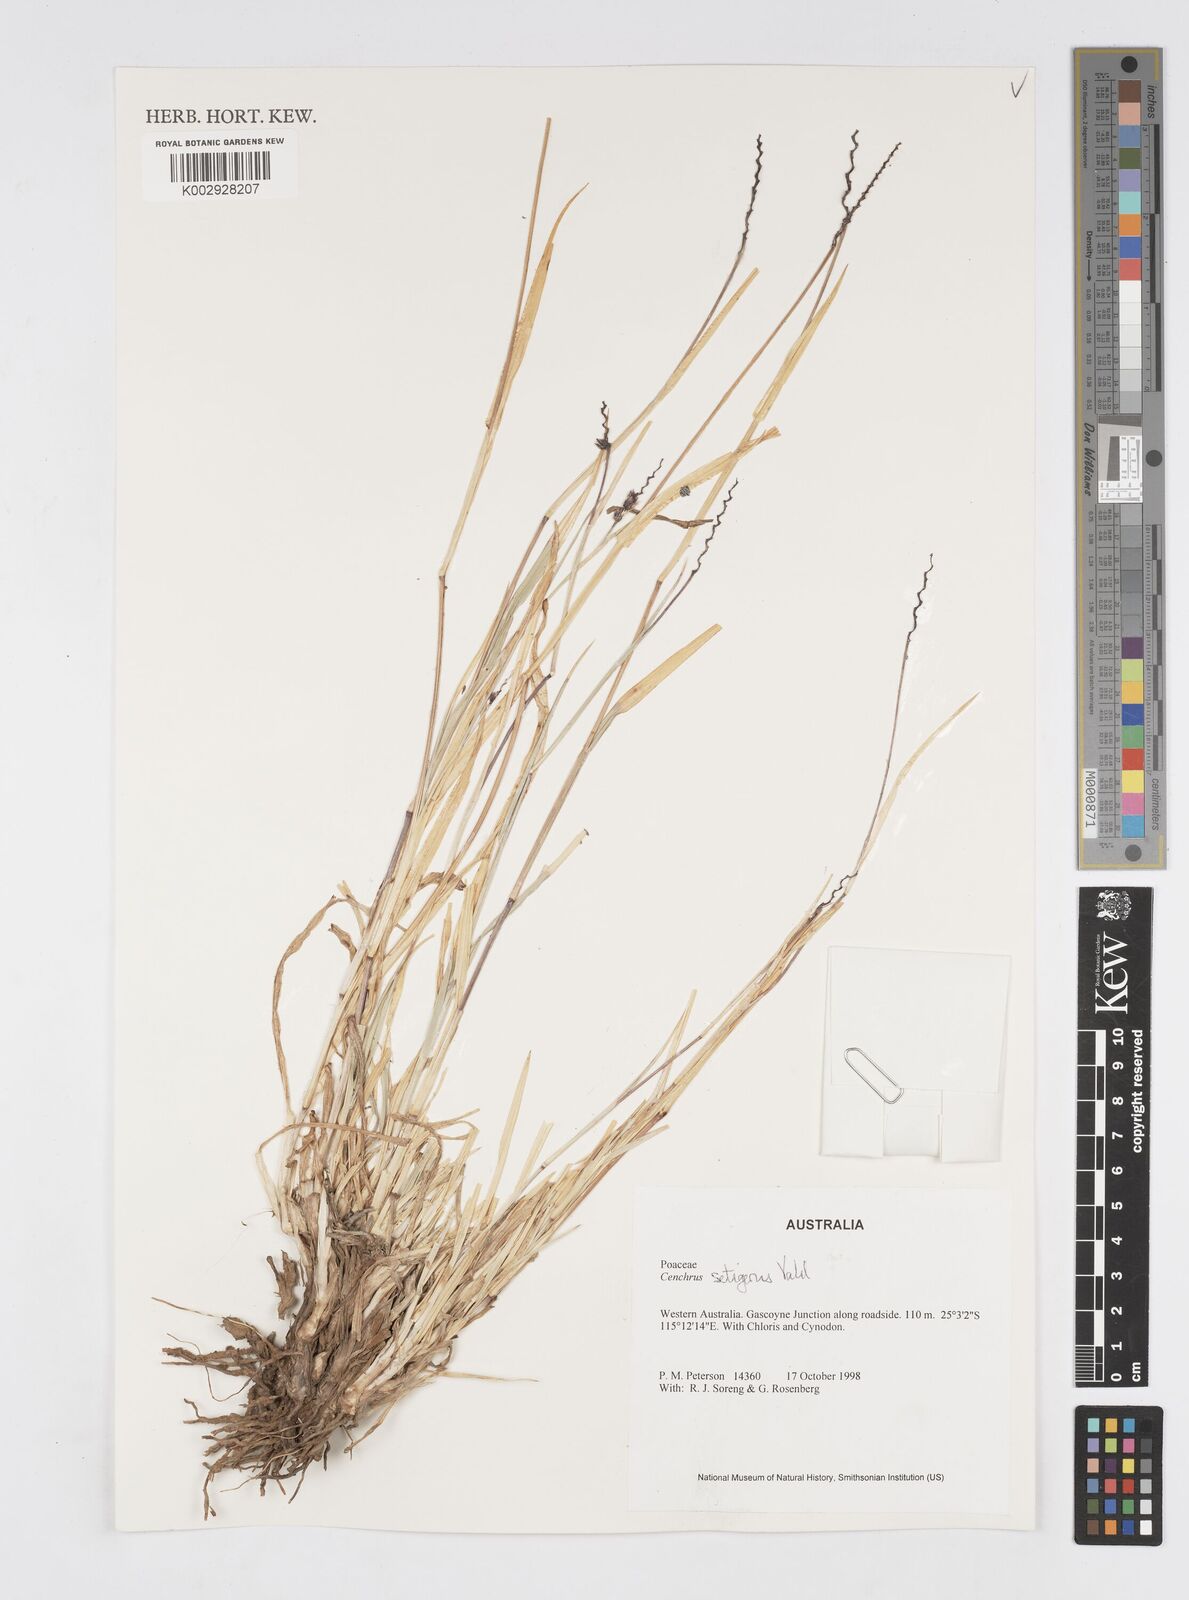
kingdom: Plantae
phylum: Tracheophyta
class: Liliopsida
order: Poales
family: Poaceae
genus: Cenchrus
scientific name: Cenchrus setigerus
